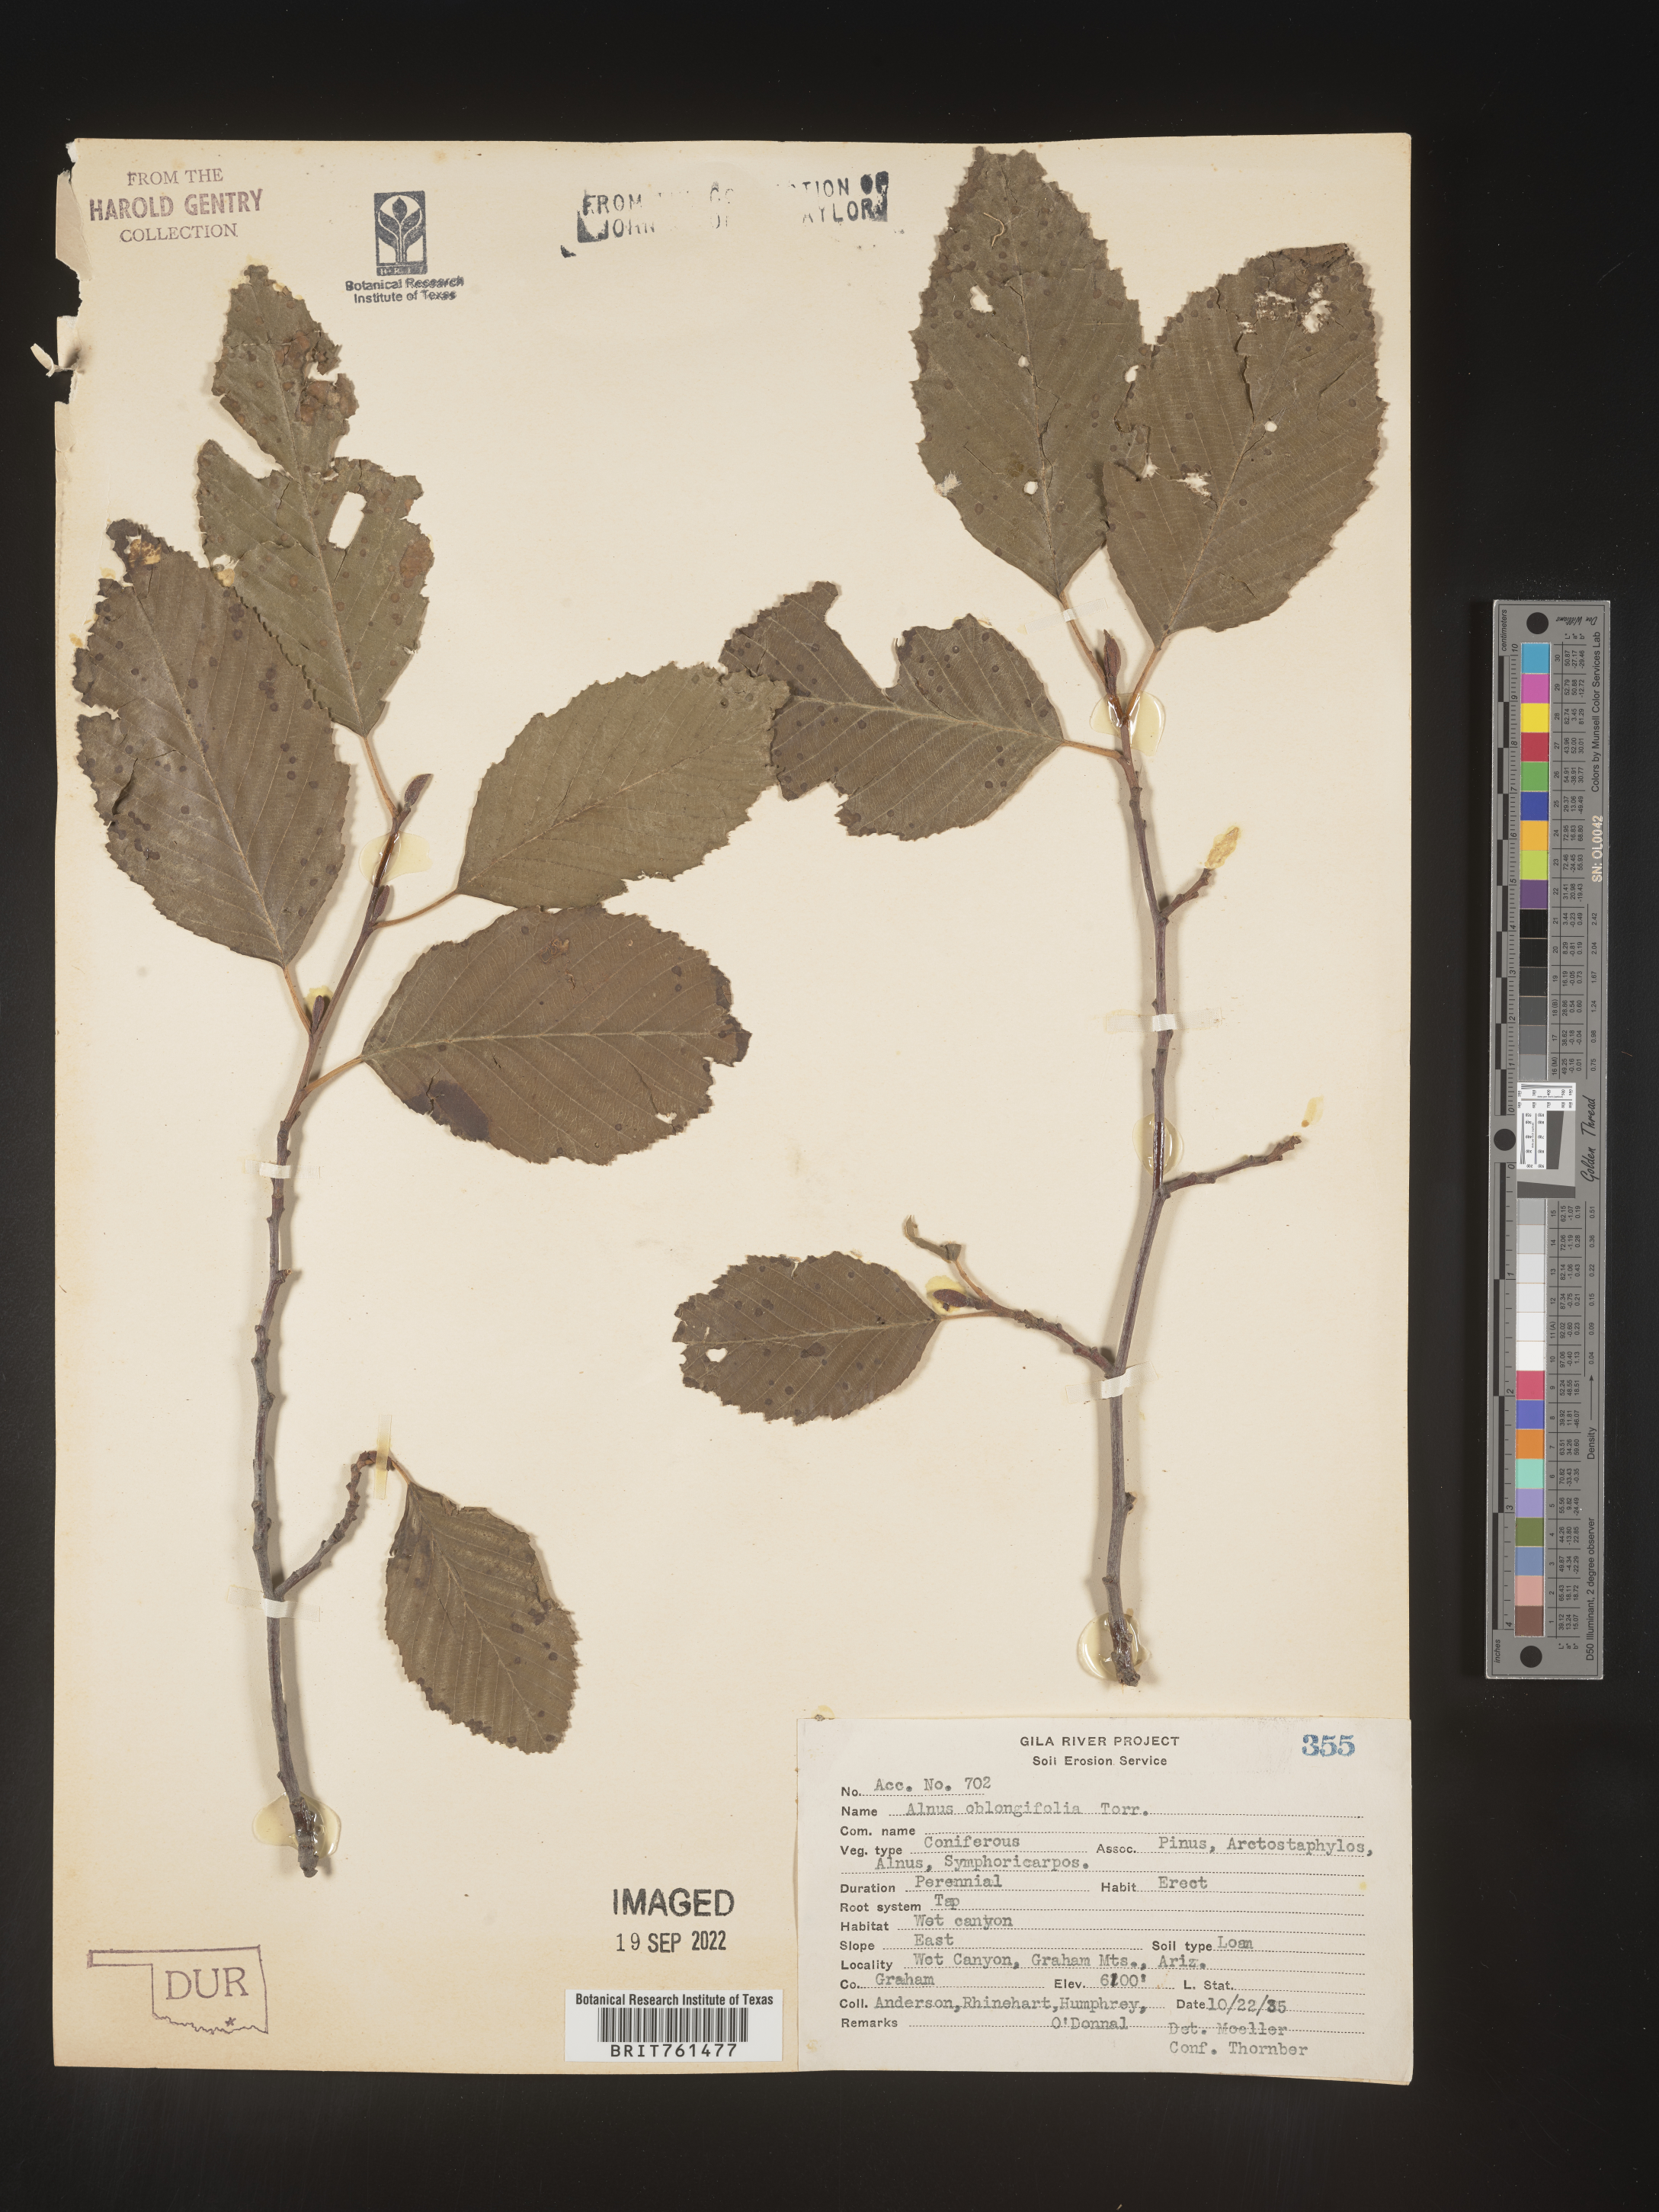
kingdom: Plantae
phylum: Tracheophyta
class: Magnoliopsida
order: Fagales
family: Betulaceae
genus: Alnus
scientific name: Alnus
